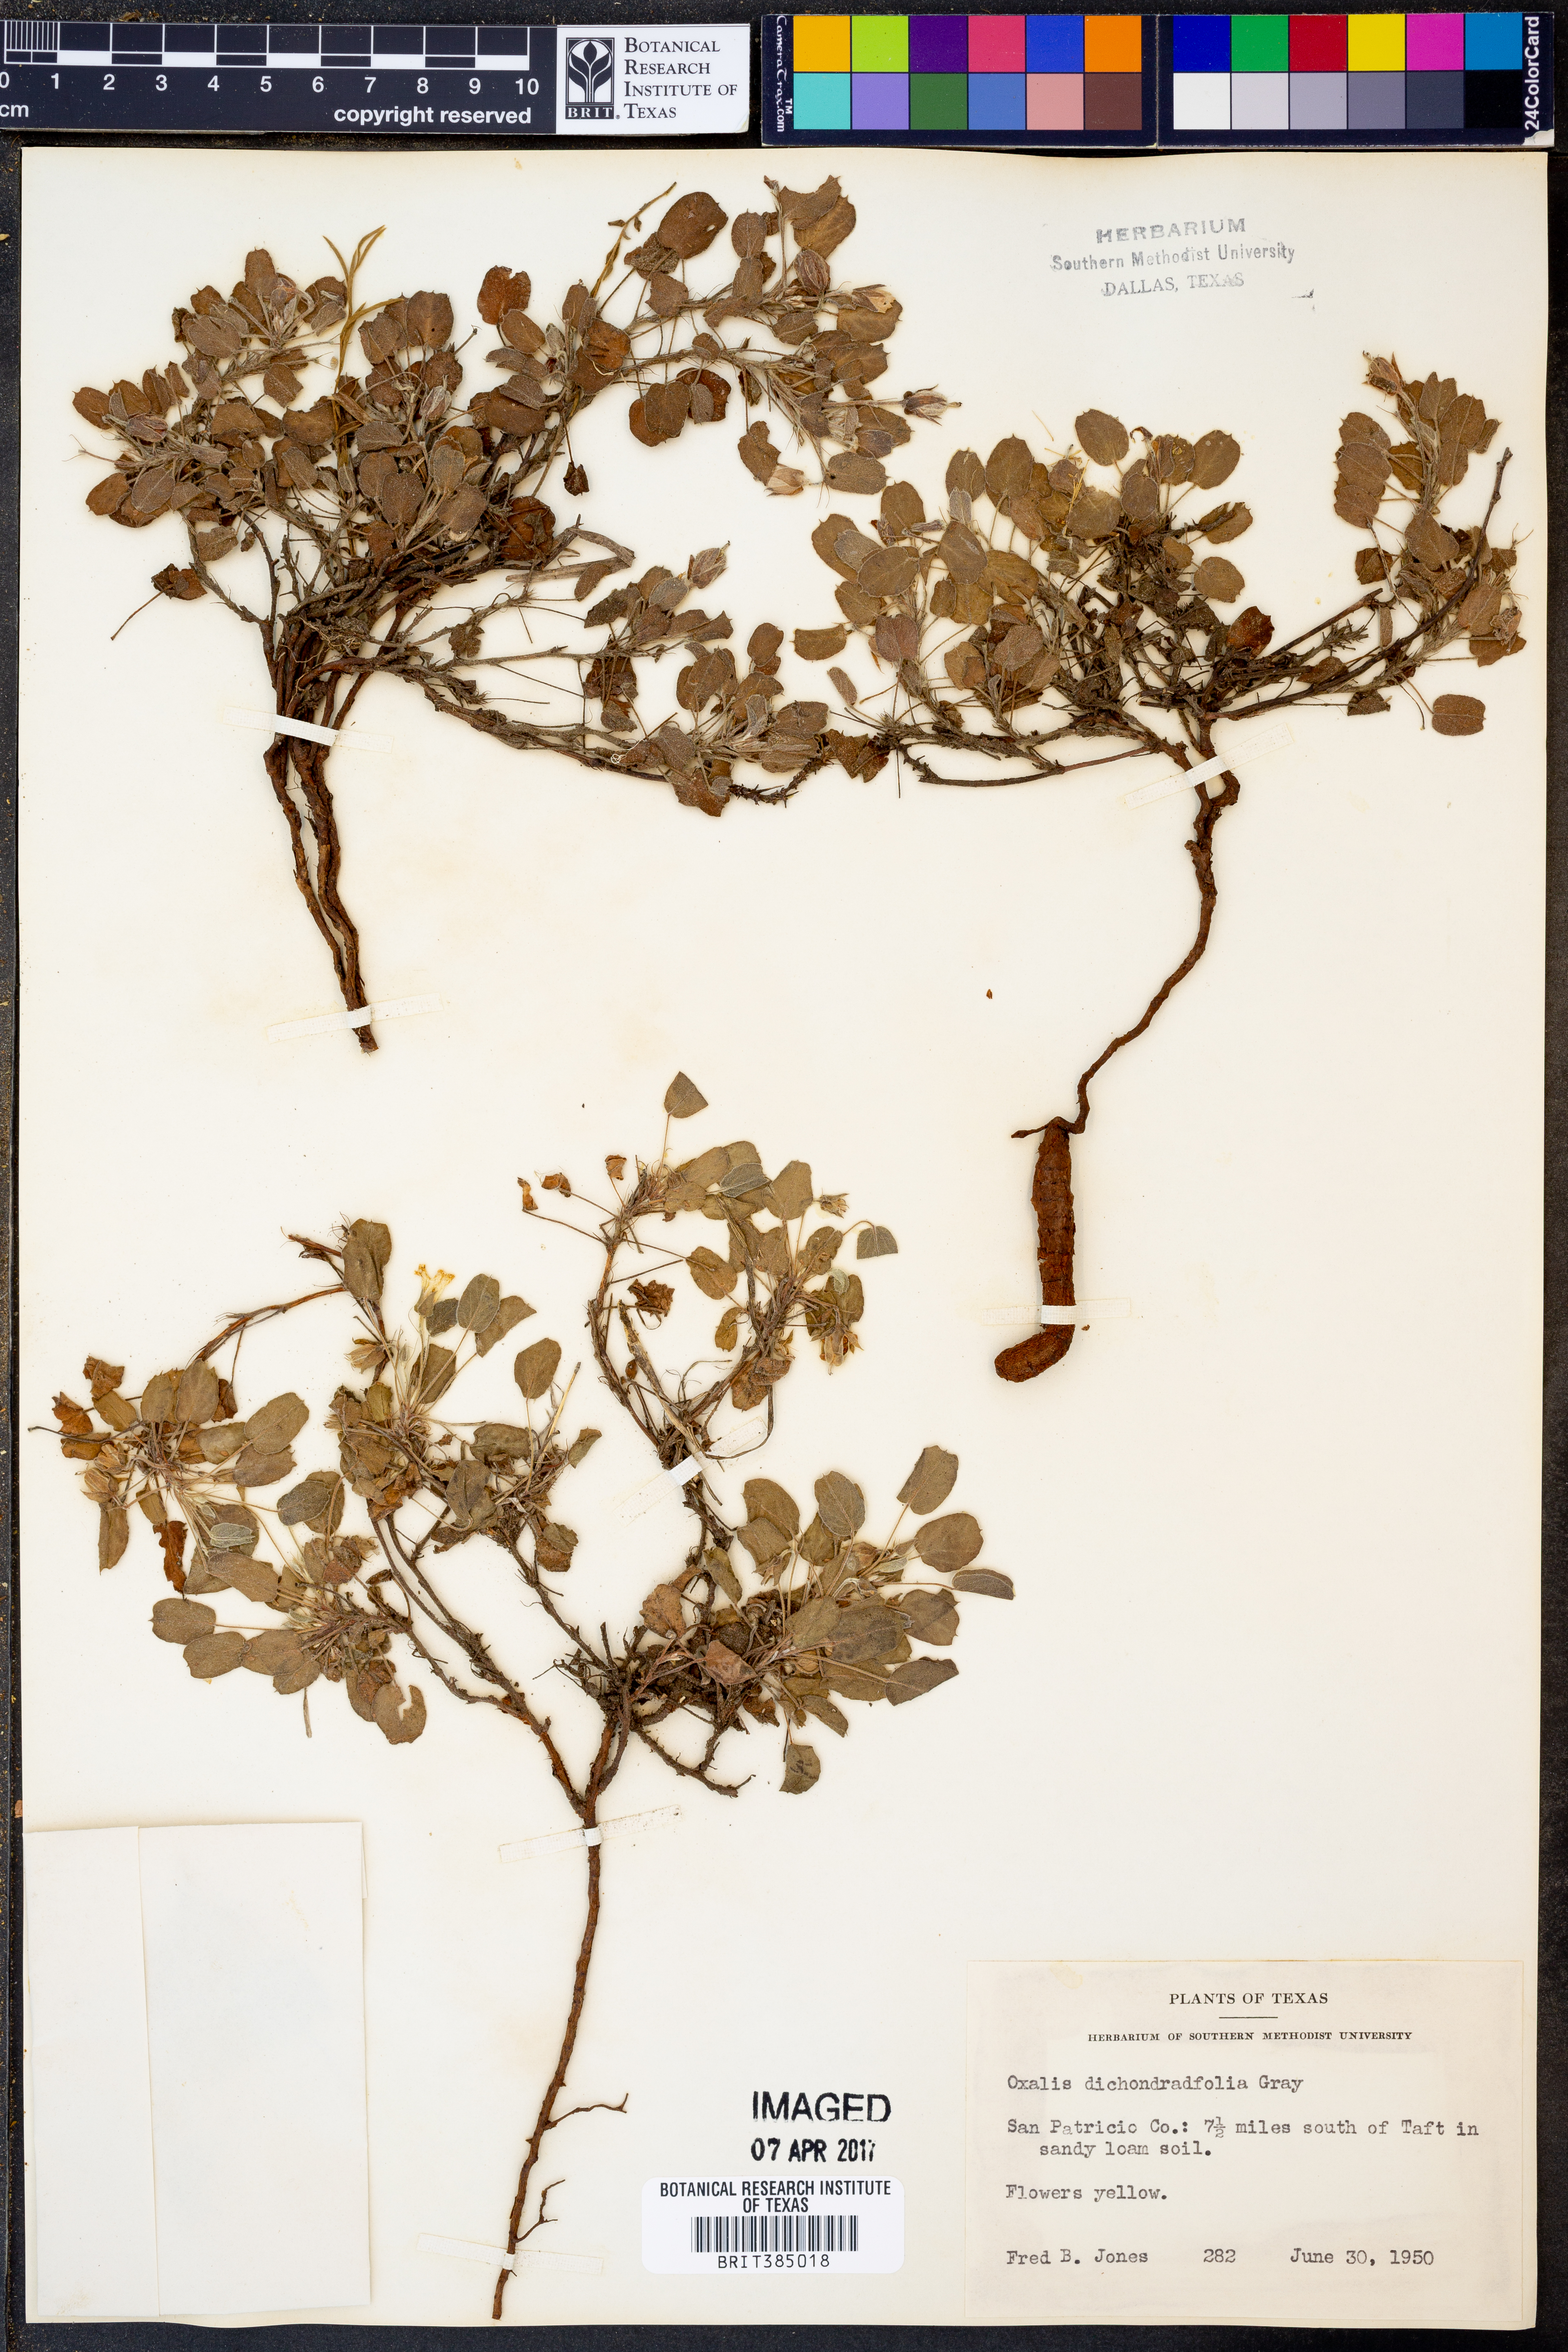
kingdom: Plantae
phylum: Tracheophyta
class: Magnoliopsida
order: Oxalidales
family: Oxalidaceae
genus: Oxalis
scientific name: Oxalis dichondrifolia
